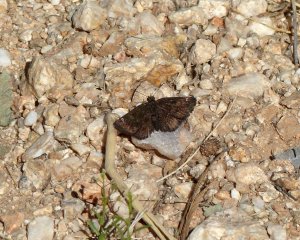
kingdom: Animalia
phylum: Arthropoda
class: Insecta
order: Lepidoptera
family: Hesperiidae
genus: Staphylus
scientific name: Staphylus ceos
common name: Golden-headed Scallopwing
